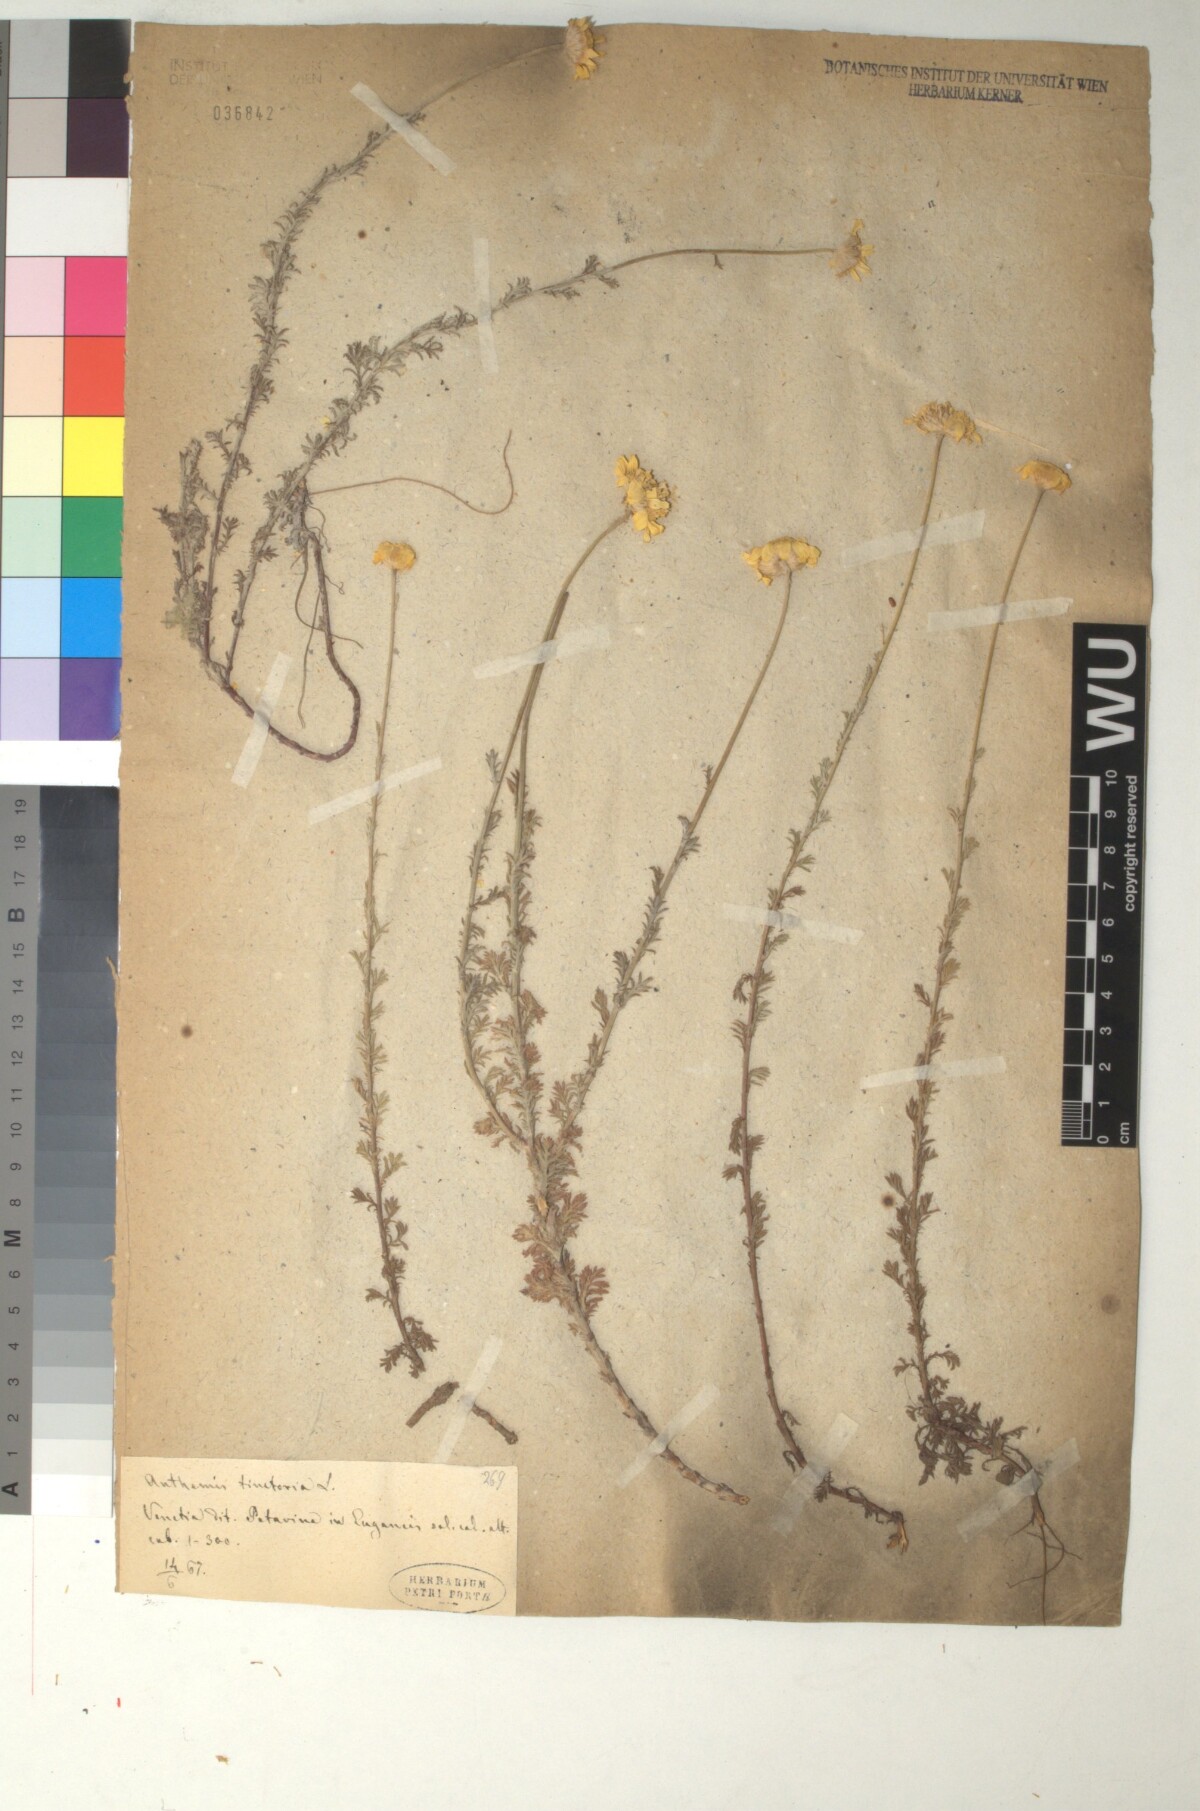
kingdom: Plantae
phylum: Tracheophyta
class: Magnoliopsida
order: Asterales
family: Asteraceae
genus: Cota
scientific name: Cota tinctoria
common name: Golden chamomile
